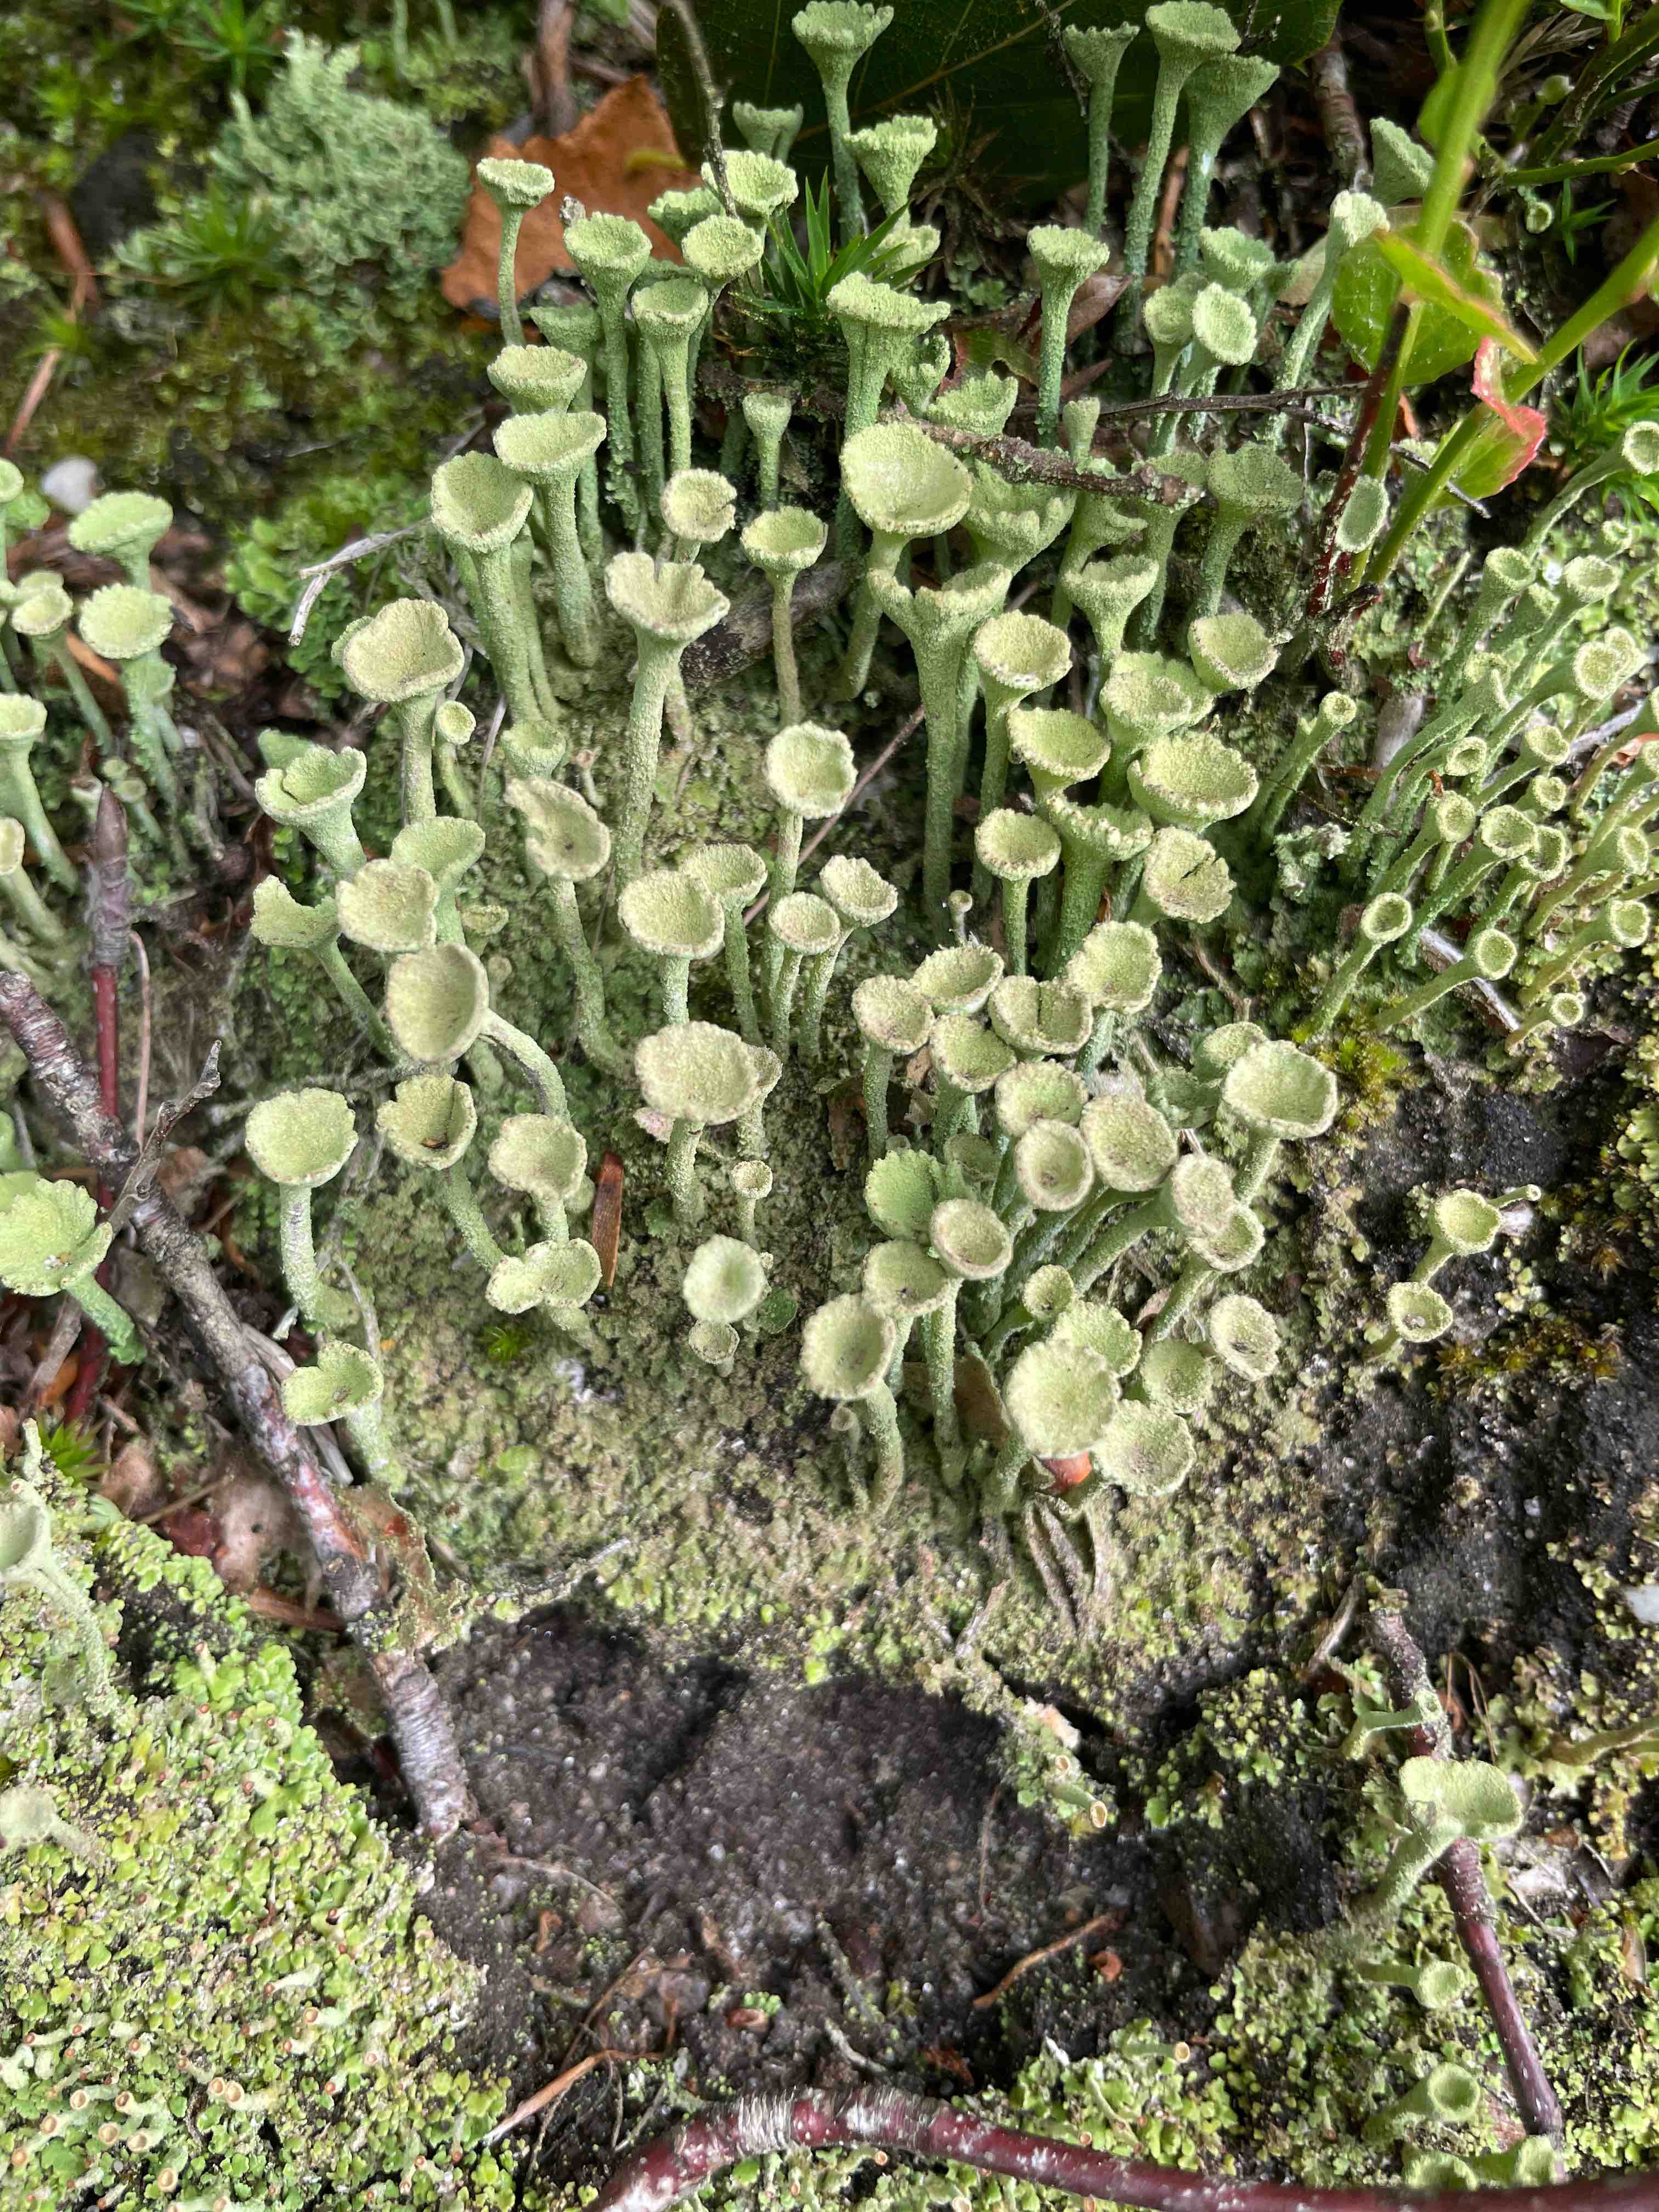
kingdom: Fungi
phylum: Ascomycota
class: Lecanoromycetes
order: Lecanorales
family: Cladoniaceae
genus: Cladonia
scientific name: Cladonia fimbriata
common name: bleggrøn bægerlav
